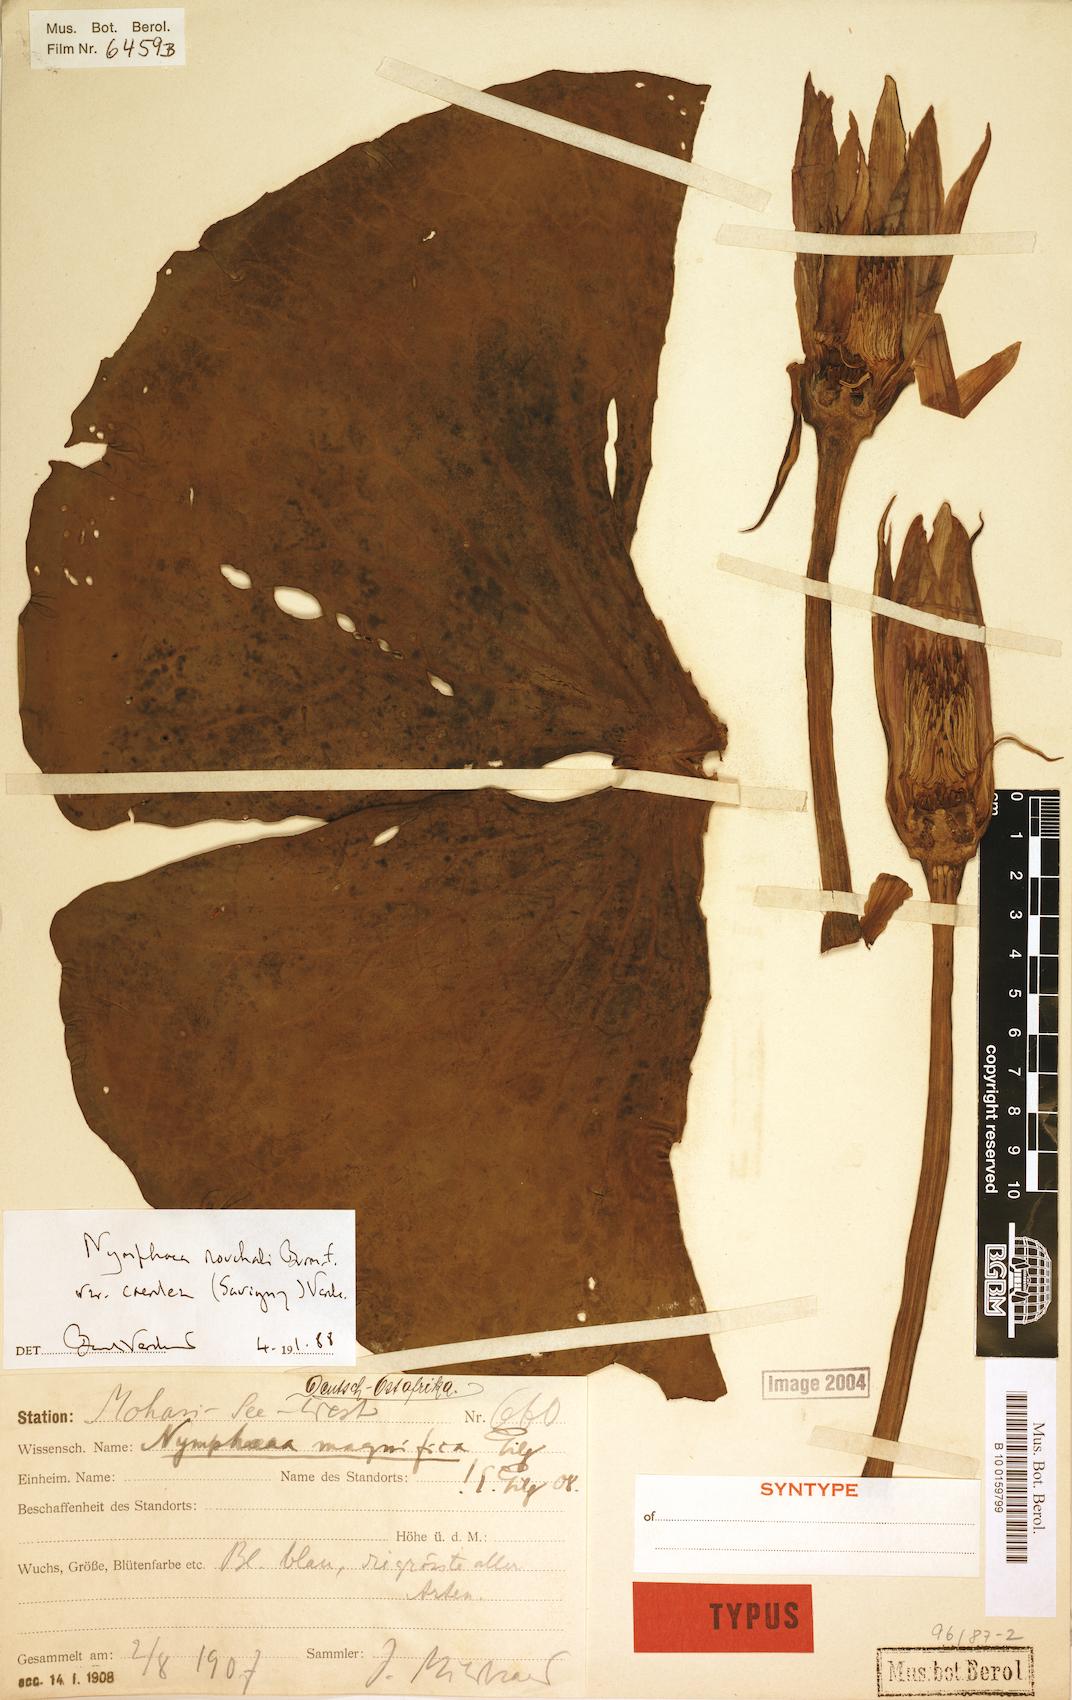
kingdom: Plantae
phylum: Tracheophyta
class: Magnoliopsida
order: Nymphaeales
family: Nymphaeaceae
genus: Nymphaea
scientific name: Nymphaea nouchali
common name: Blue lotus
